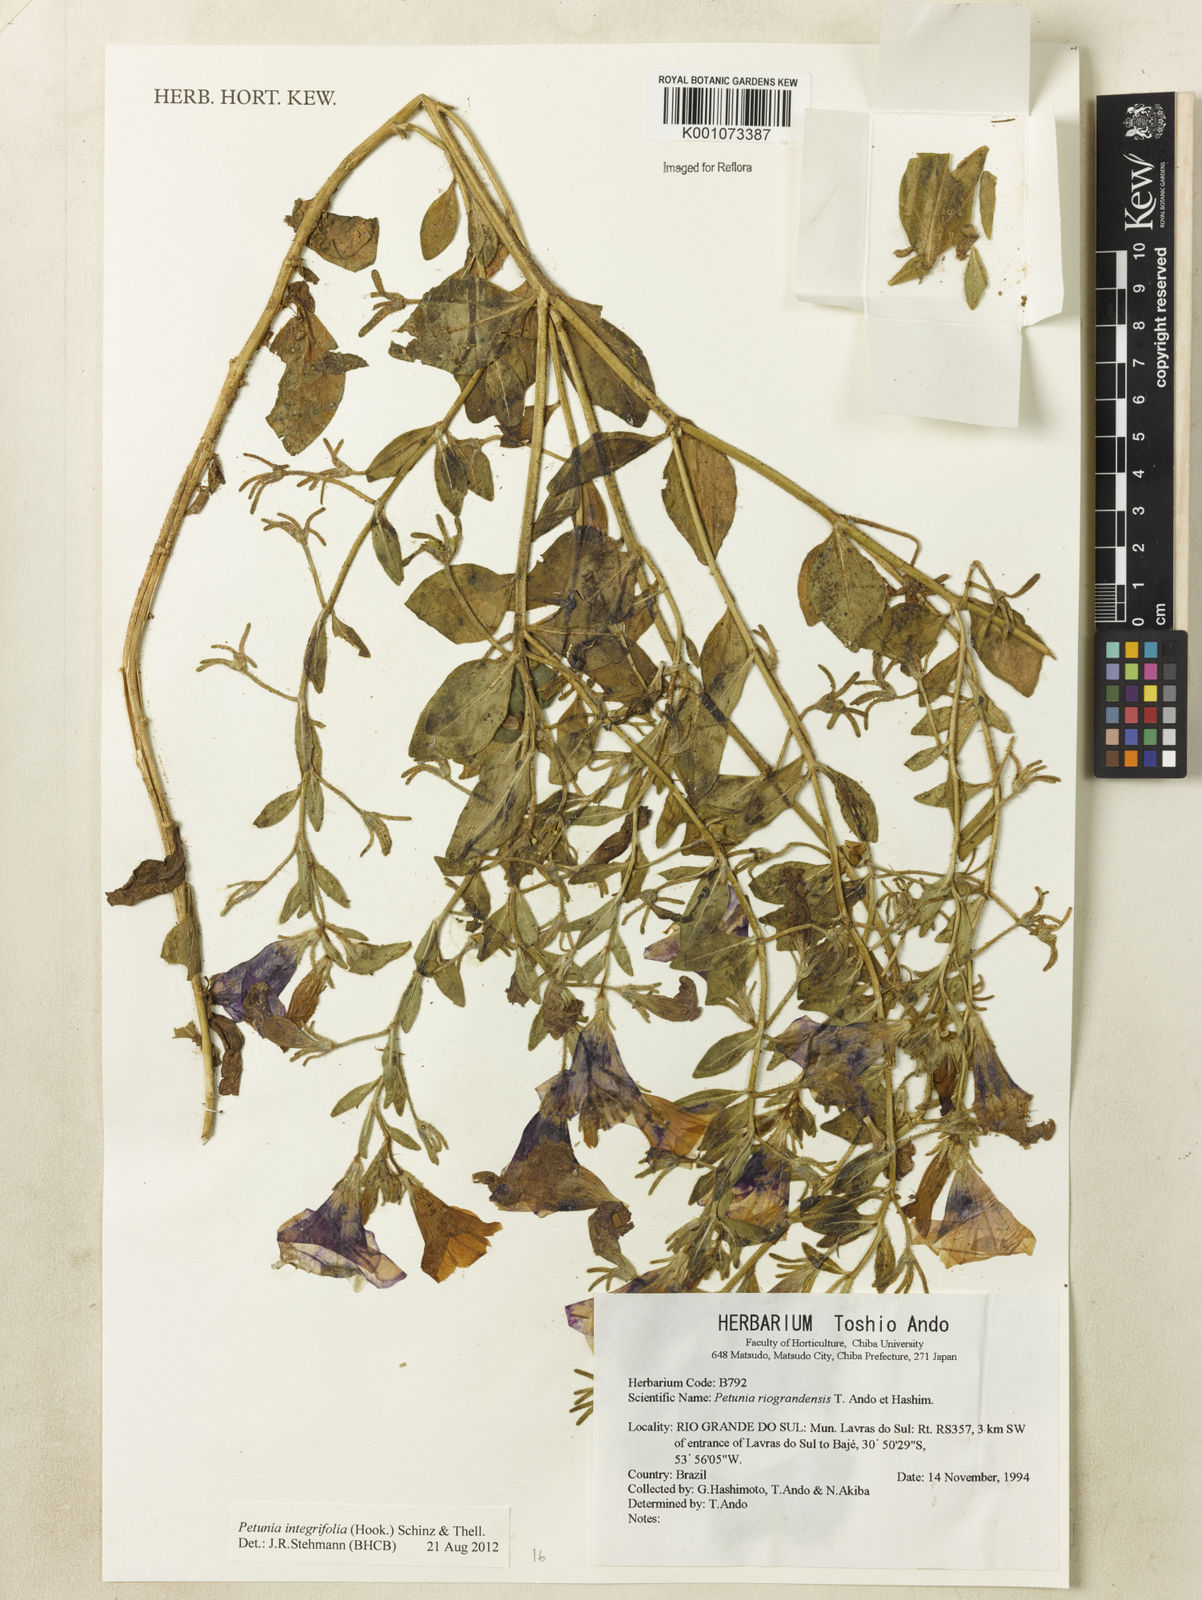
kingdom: Plantae
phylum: Tracheophyta
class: Magnoliopsida
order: Solanales
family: Solanaceae
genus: Petunia
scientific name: Petunia integrifolia
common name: Violet-flower petunia
